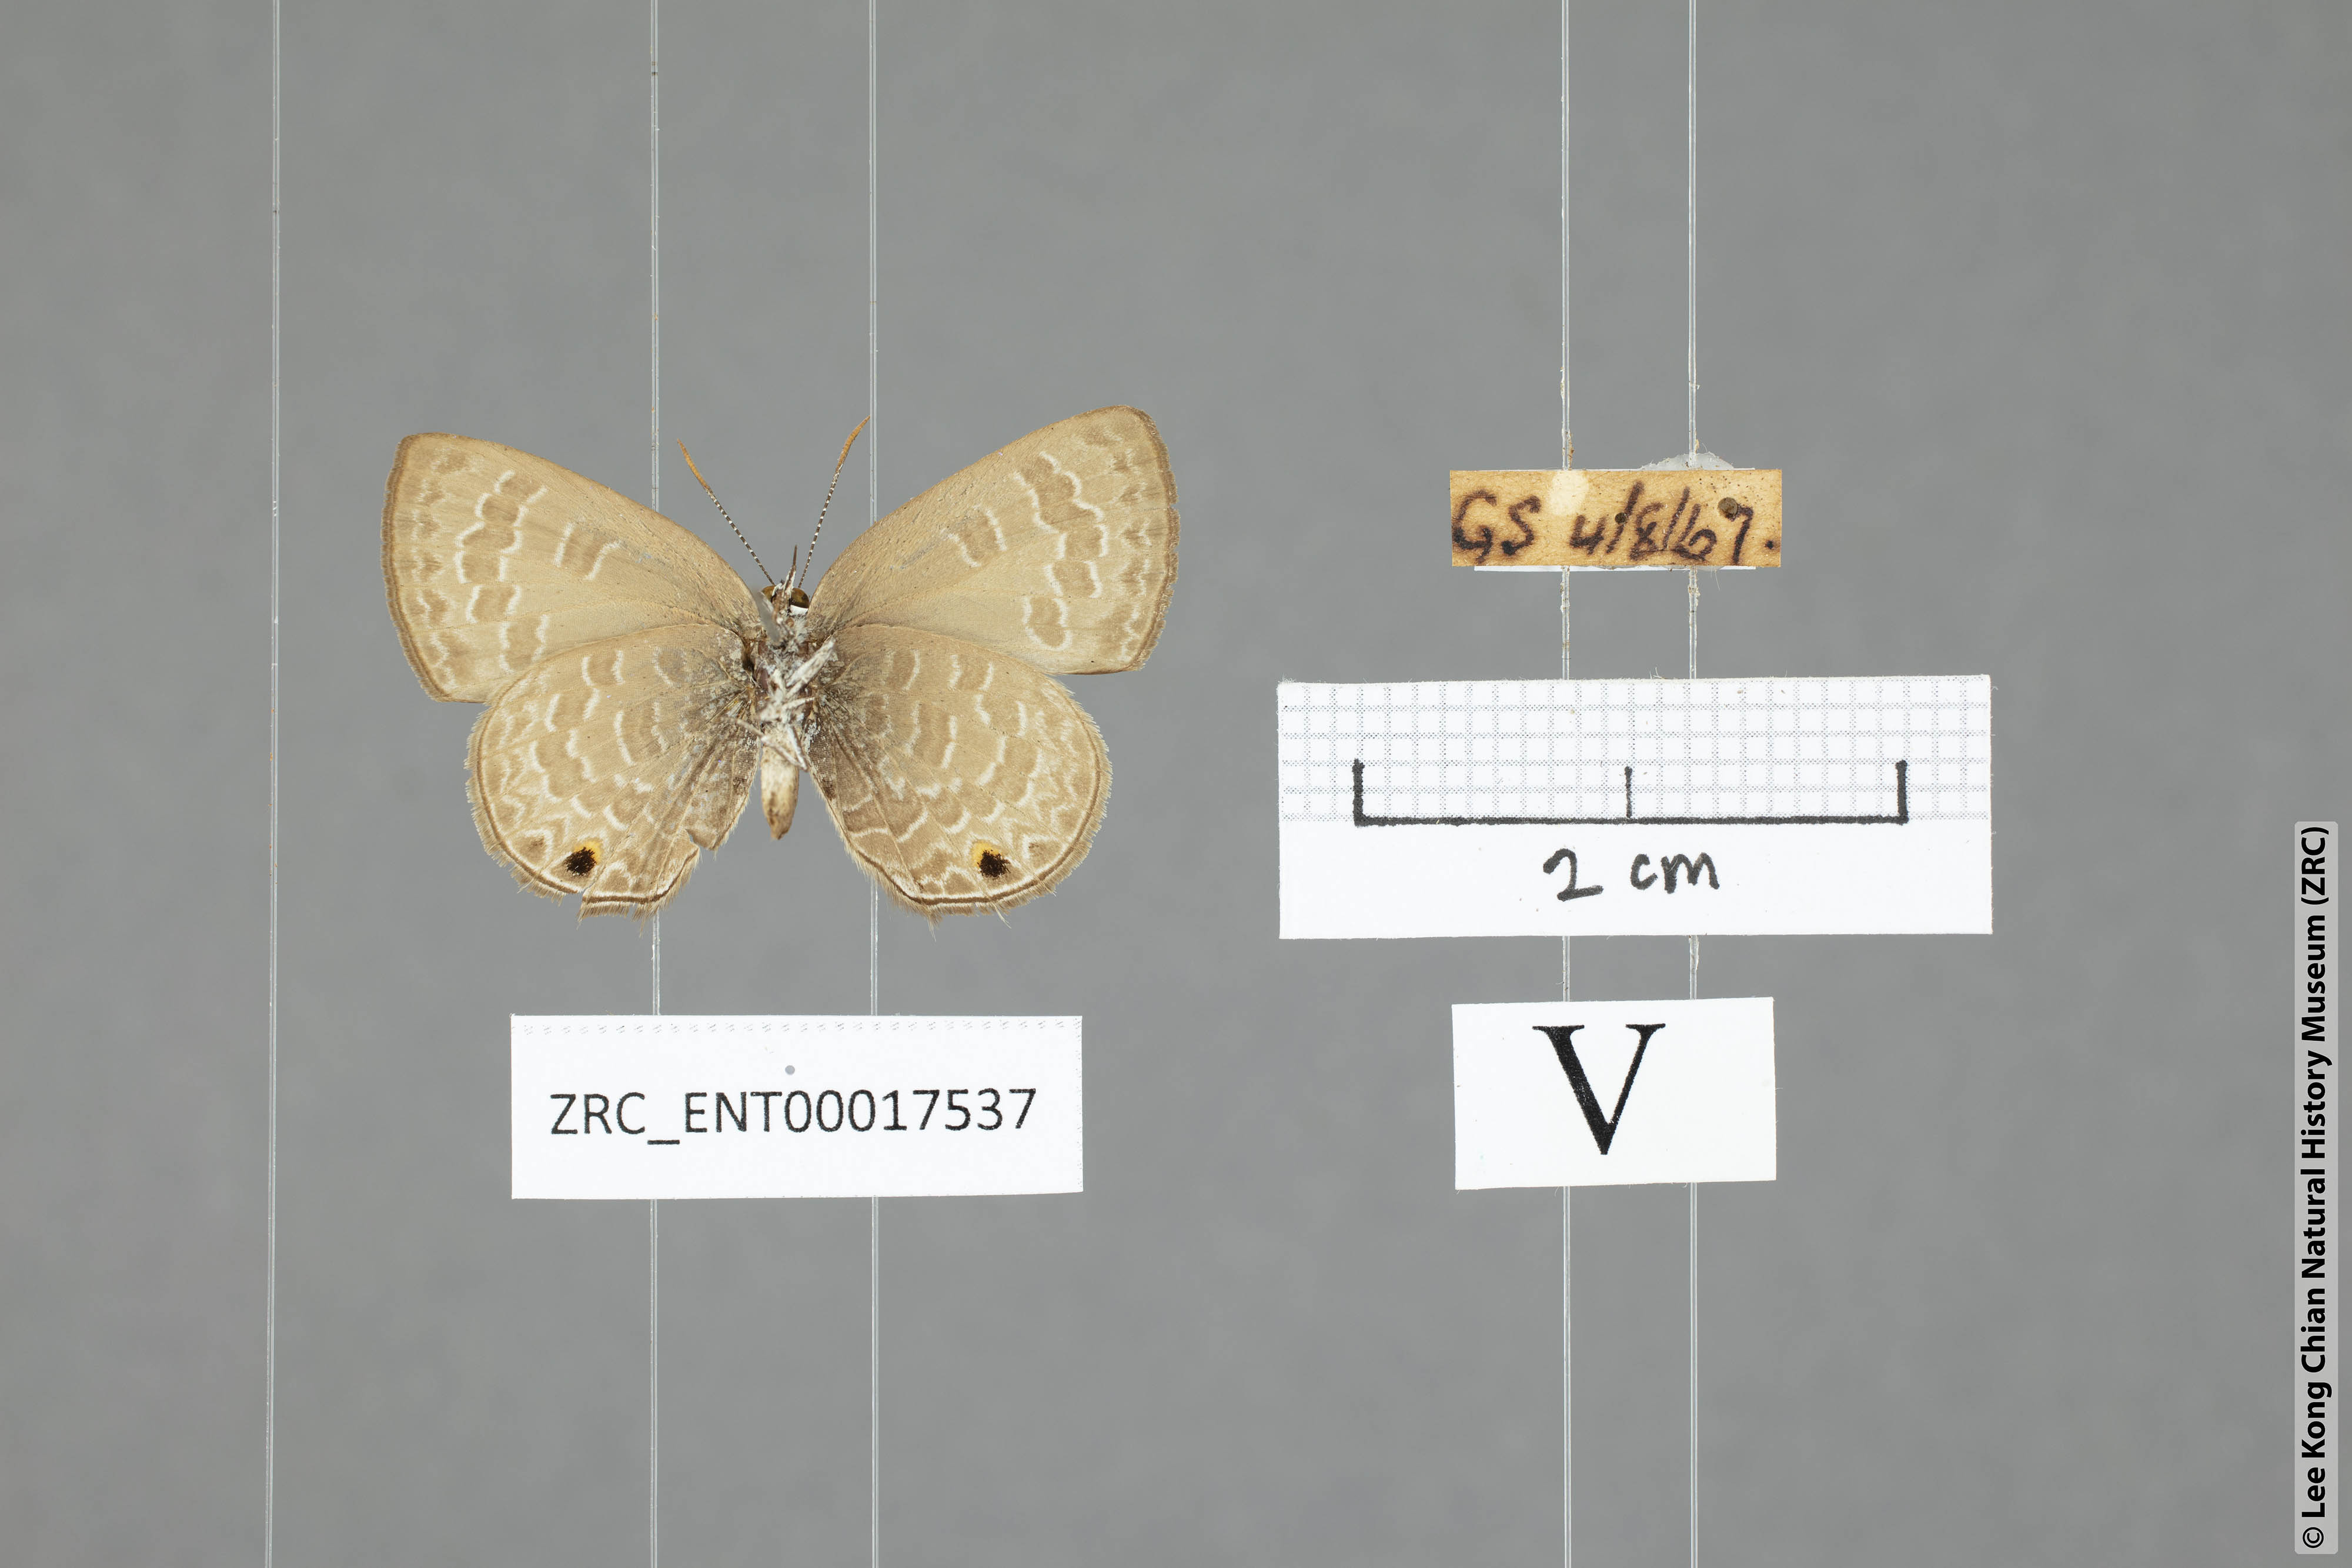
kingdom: Animalia
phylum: Arthropoda
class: Insecta
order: Lepidoptera
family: Lycaenidae
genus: Anthene
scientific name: Anthene emolus
